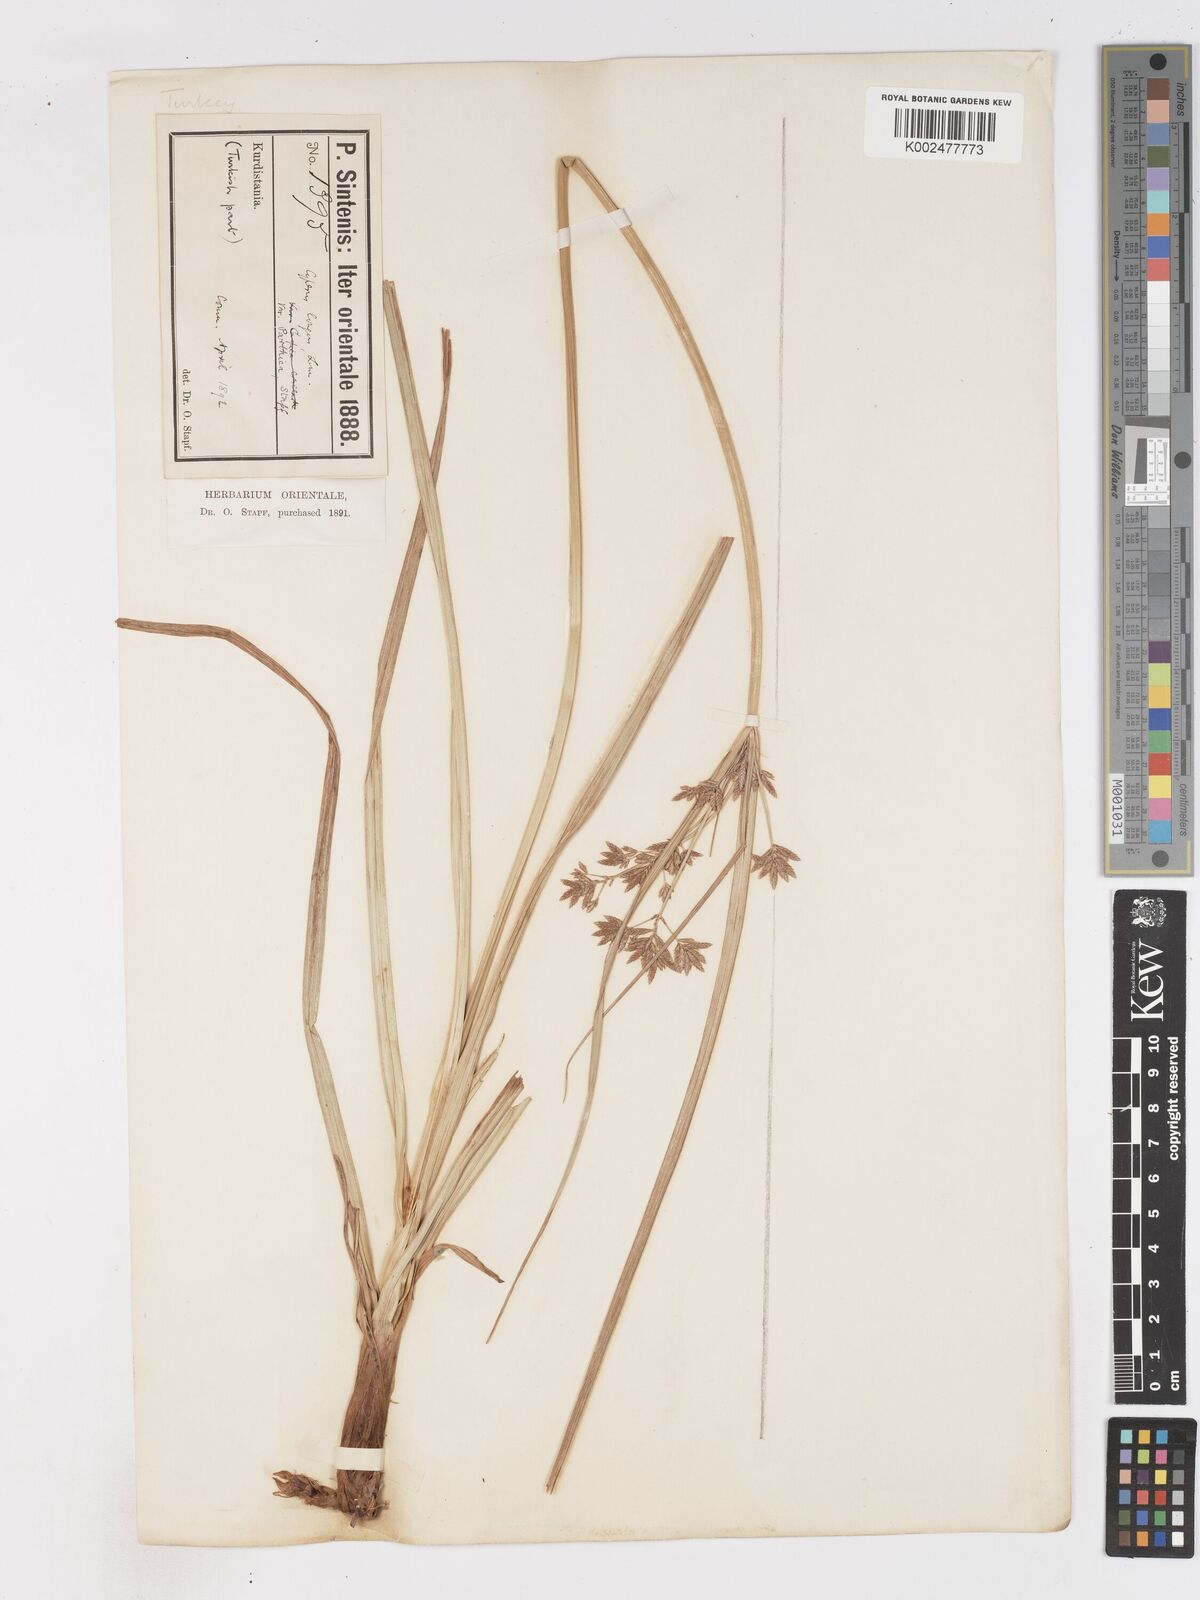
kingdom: Plantae
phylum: Tracheophyta
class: Liliopsida
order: Poales
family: Cyperaceae
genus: Cyperus
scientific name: Cyperus longus
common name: Galingale
